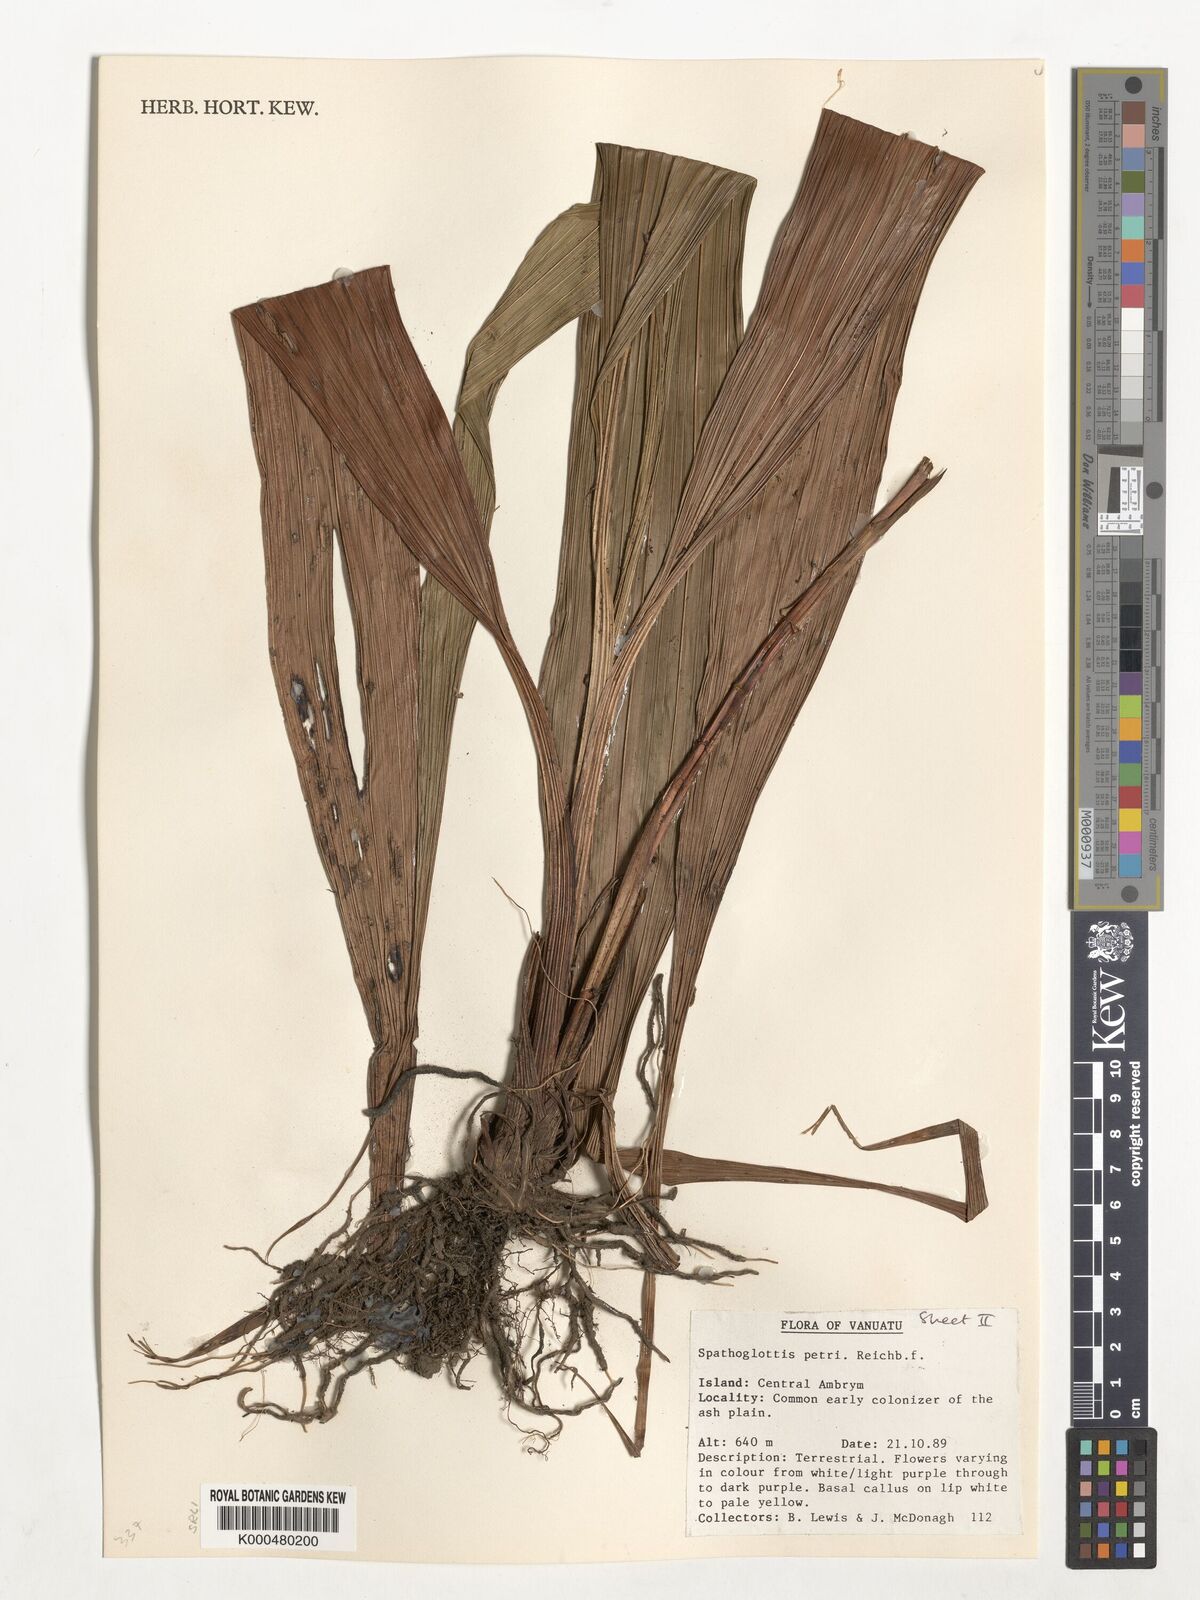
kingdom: Plantae
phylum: Tracheophyta
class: Liliopsida
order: Asparagales
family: Orchidaceae
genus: Spathoglottis
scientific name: Spathoglottis petri
